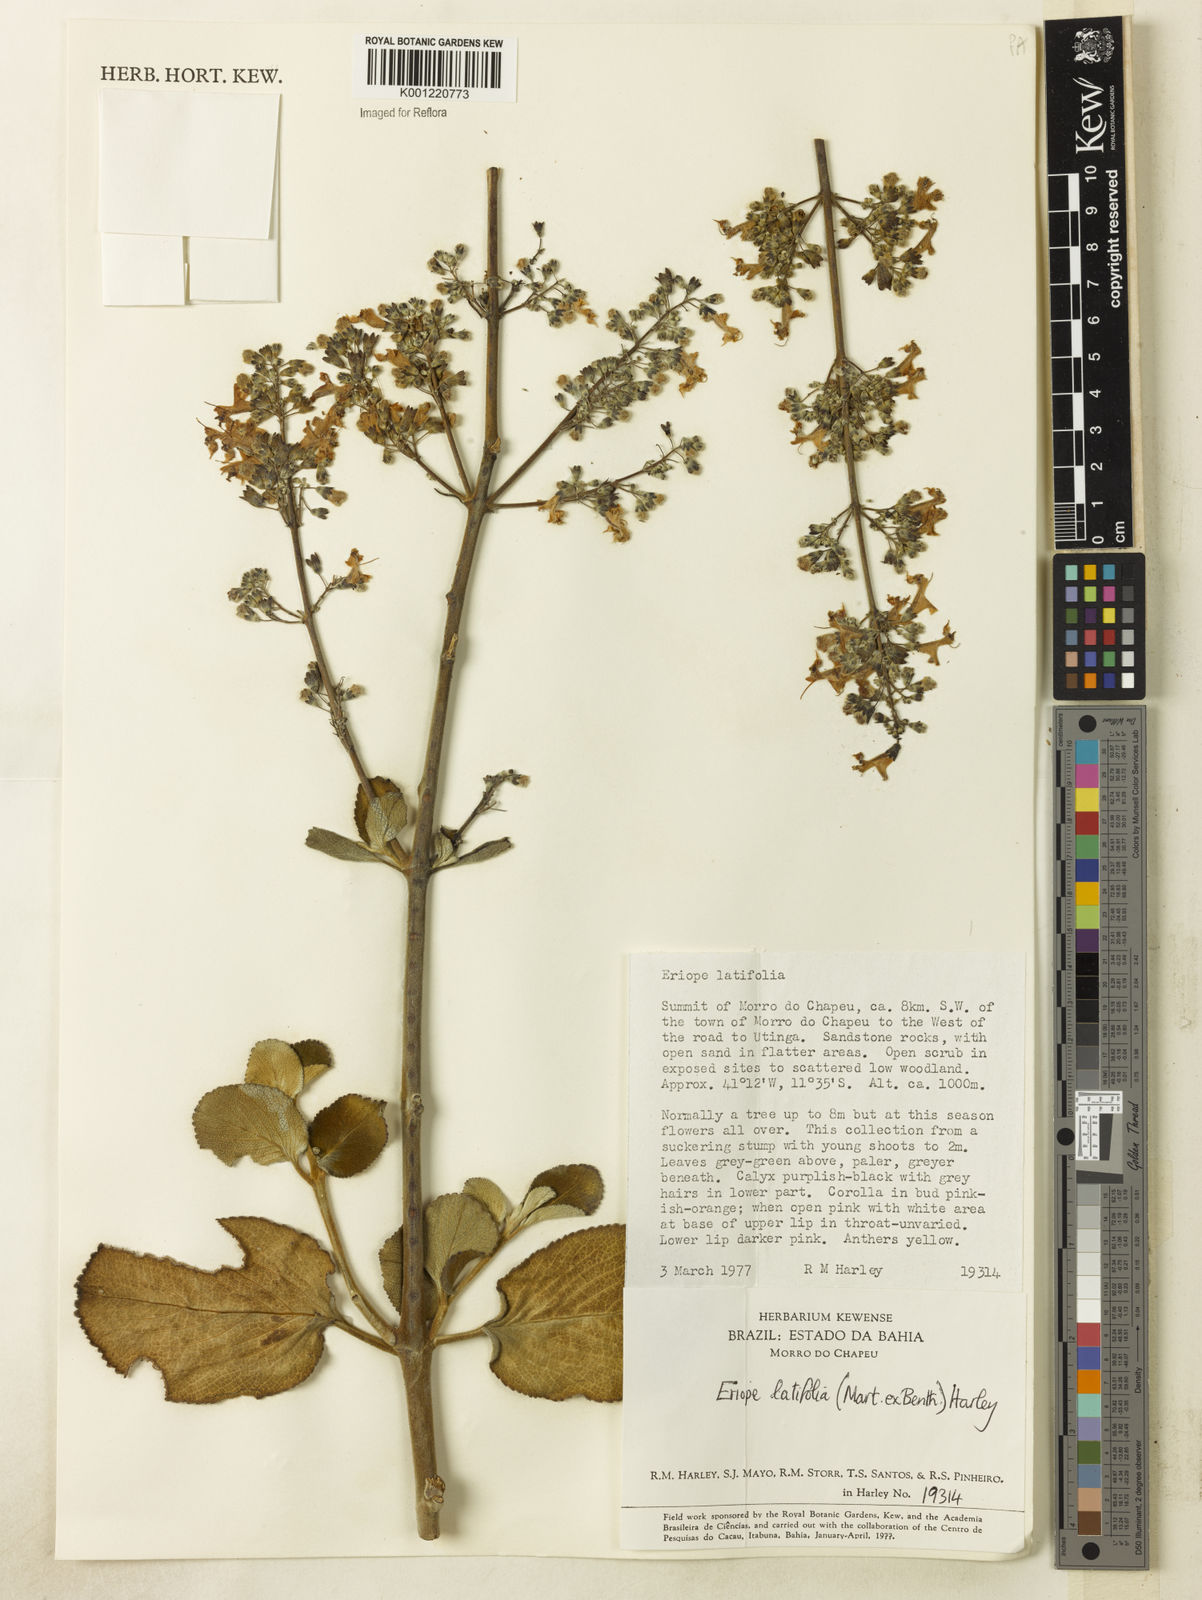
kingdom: Plantae
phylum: Tracheophyta
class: Magnoliopsida
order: Lamiales
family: Lamiaceae
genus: Eriope
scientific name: Eriope latifolia
